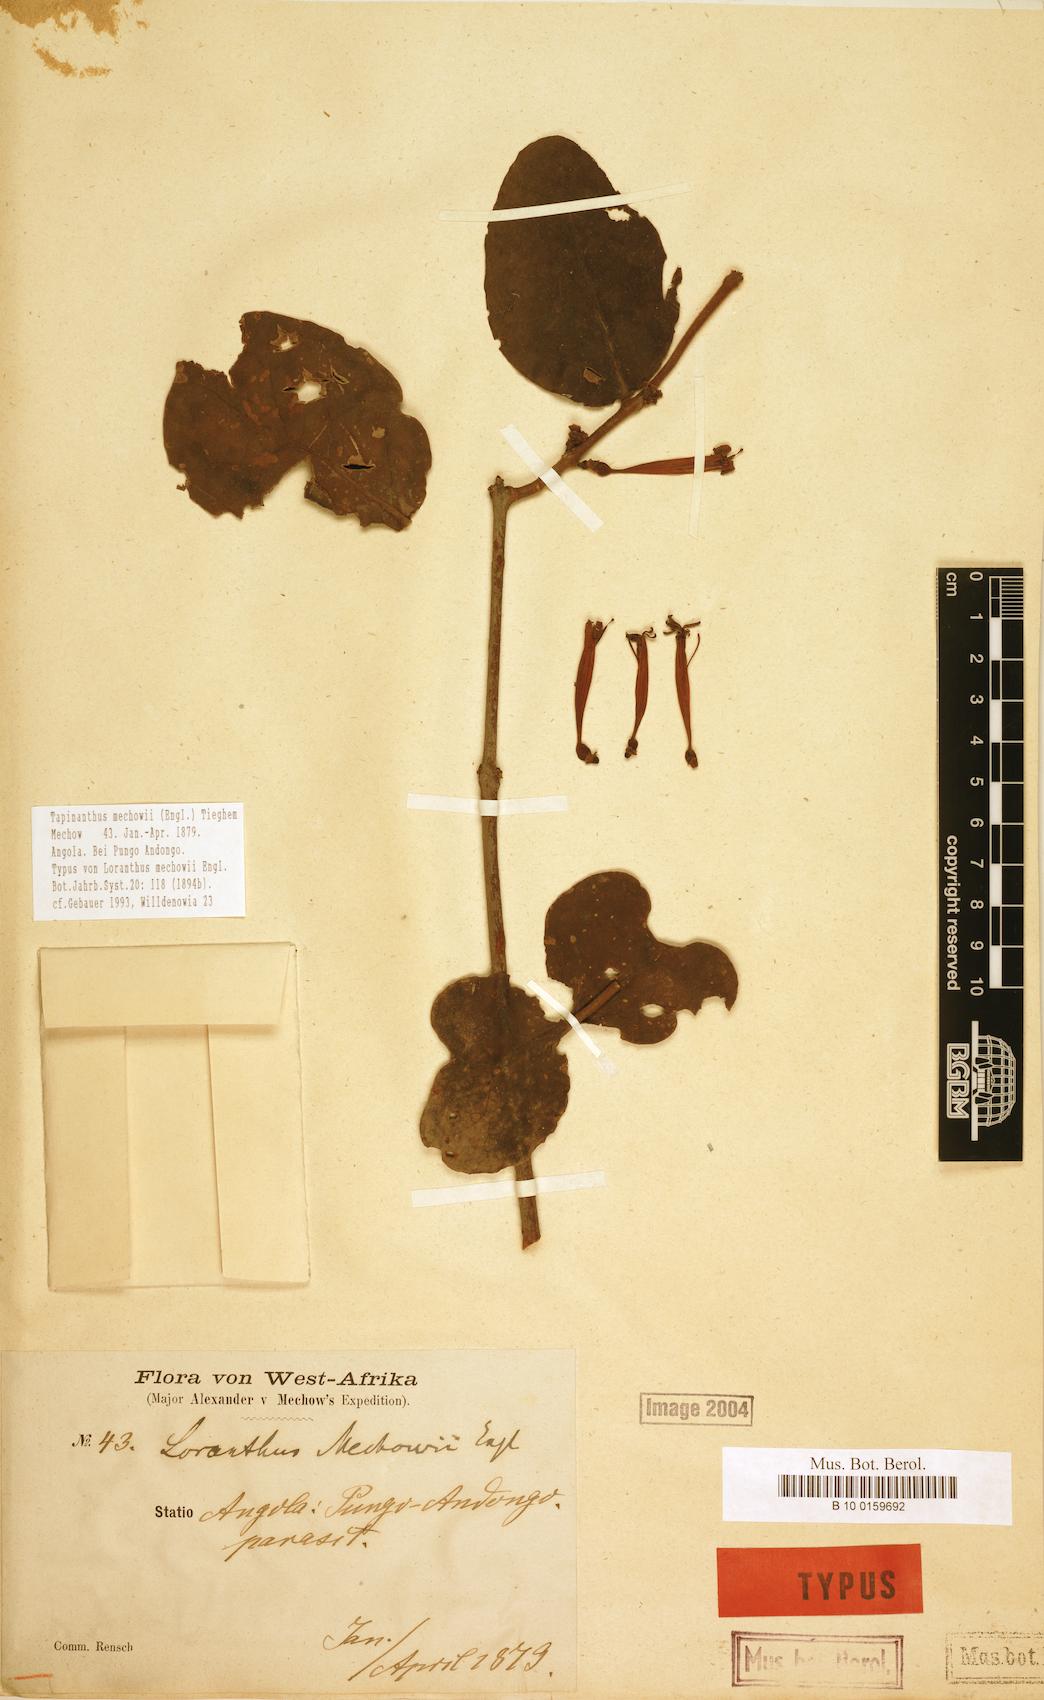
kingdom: Plantae
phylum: Tracheophyta
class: Magnoliopsida
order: Santalales
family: Loranthaceae
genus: Tapinanthus
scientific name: Tapinanthus mechowii
